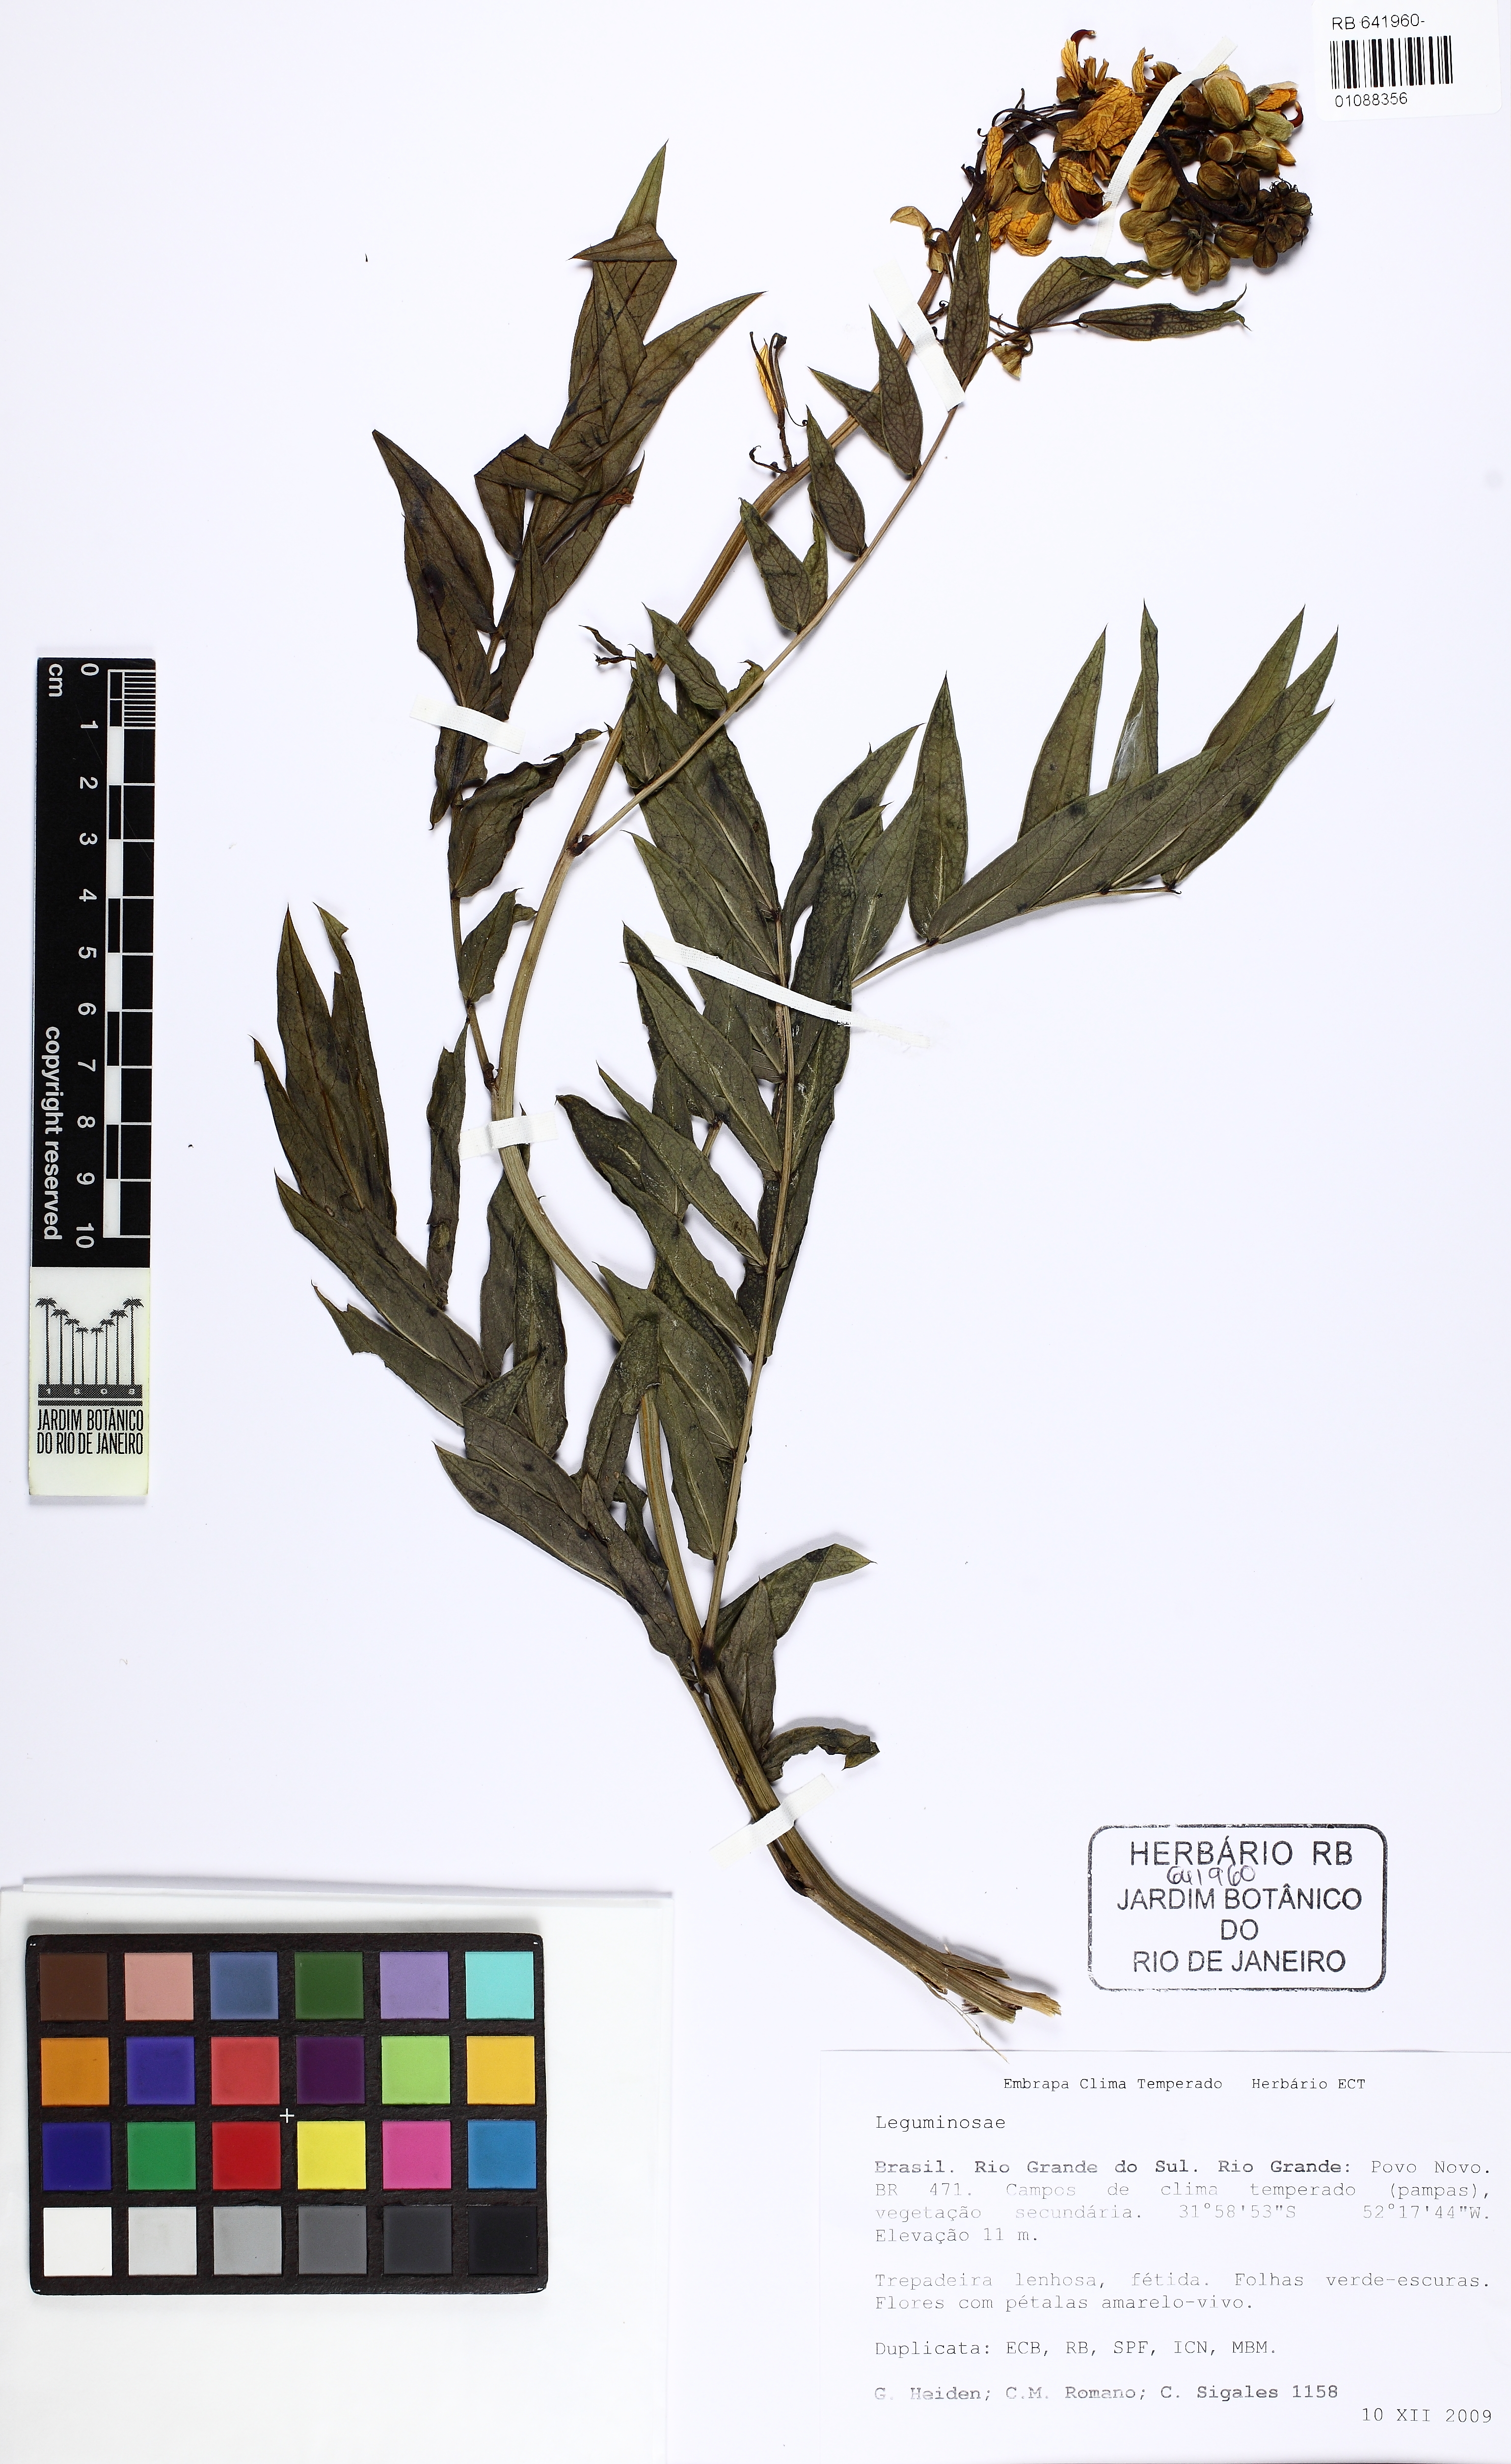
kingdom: Plantae
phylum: Tracheophyta
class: Magnoliopsida
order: Fabales
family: Fabaceae
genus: Senna
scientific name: Senna
